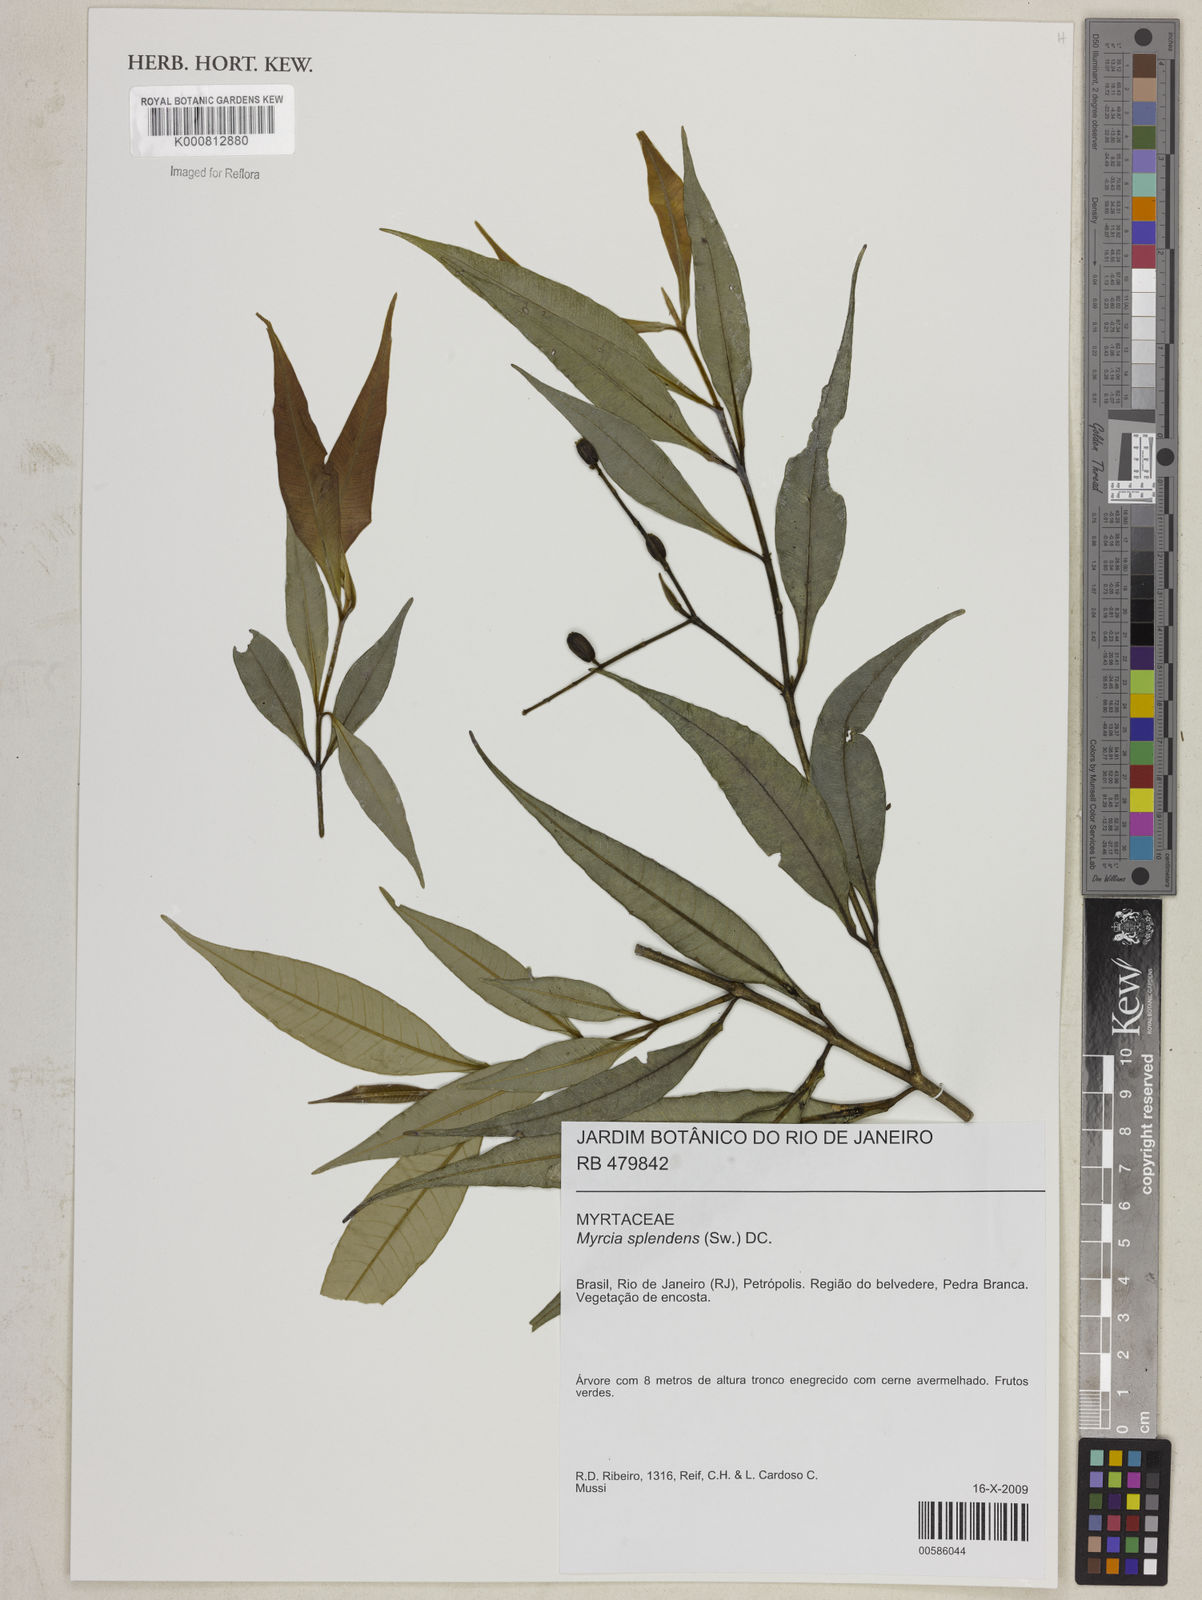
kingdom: Plantae
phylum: Tracheophyta
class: Magnoliopsida
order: Myrtales
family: Myrtaceae
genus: Myrcia
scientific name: Myrcia splendens
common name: Surinam cherry
